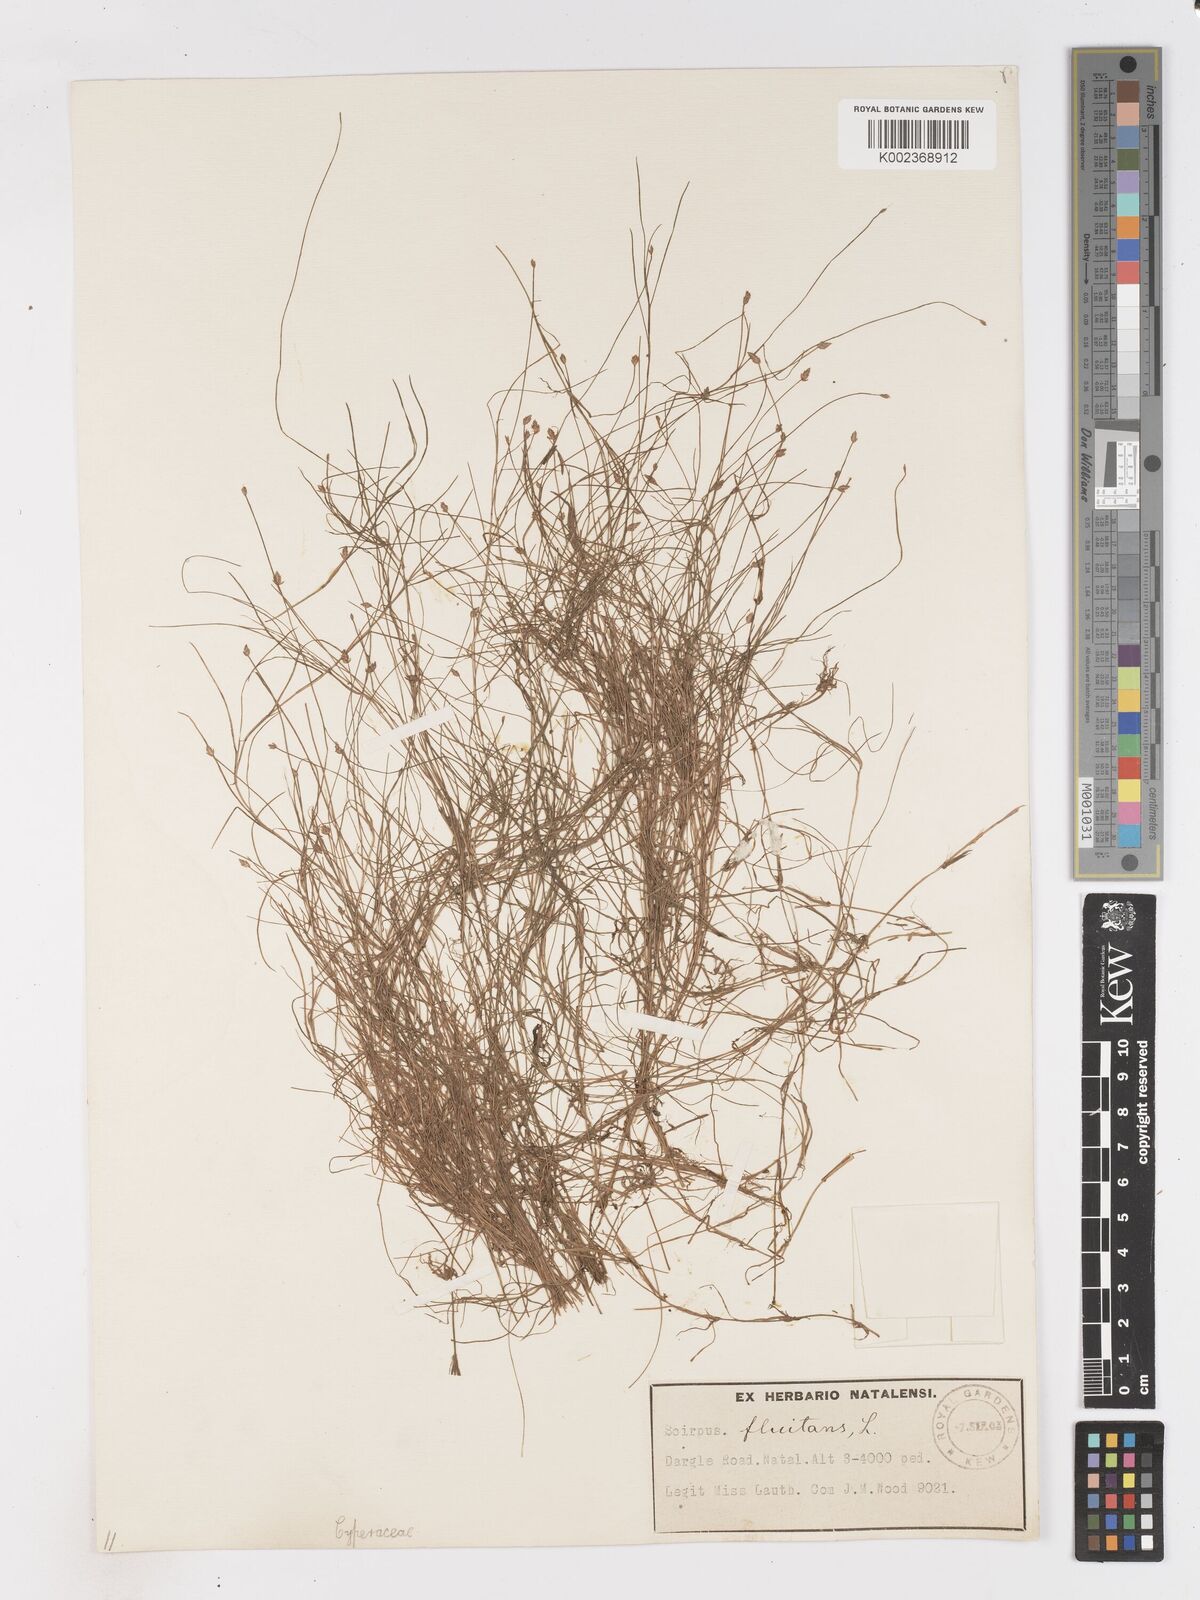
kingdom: Plantae
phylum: Tracheophyta
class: Liliopsida
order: Poales
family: Cyperaceae
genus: Isolepis
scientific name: Isolepis
